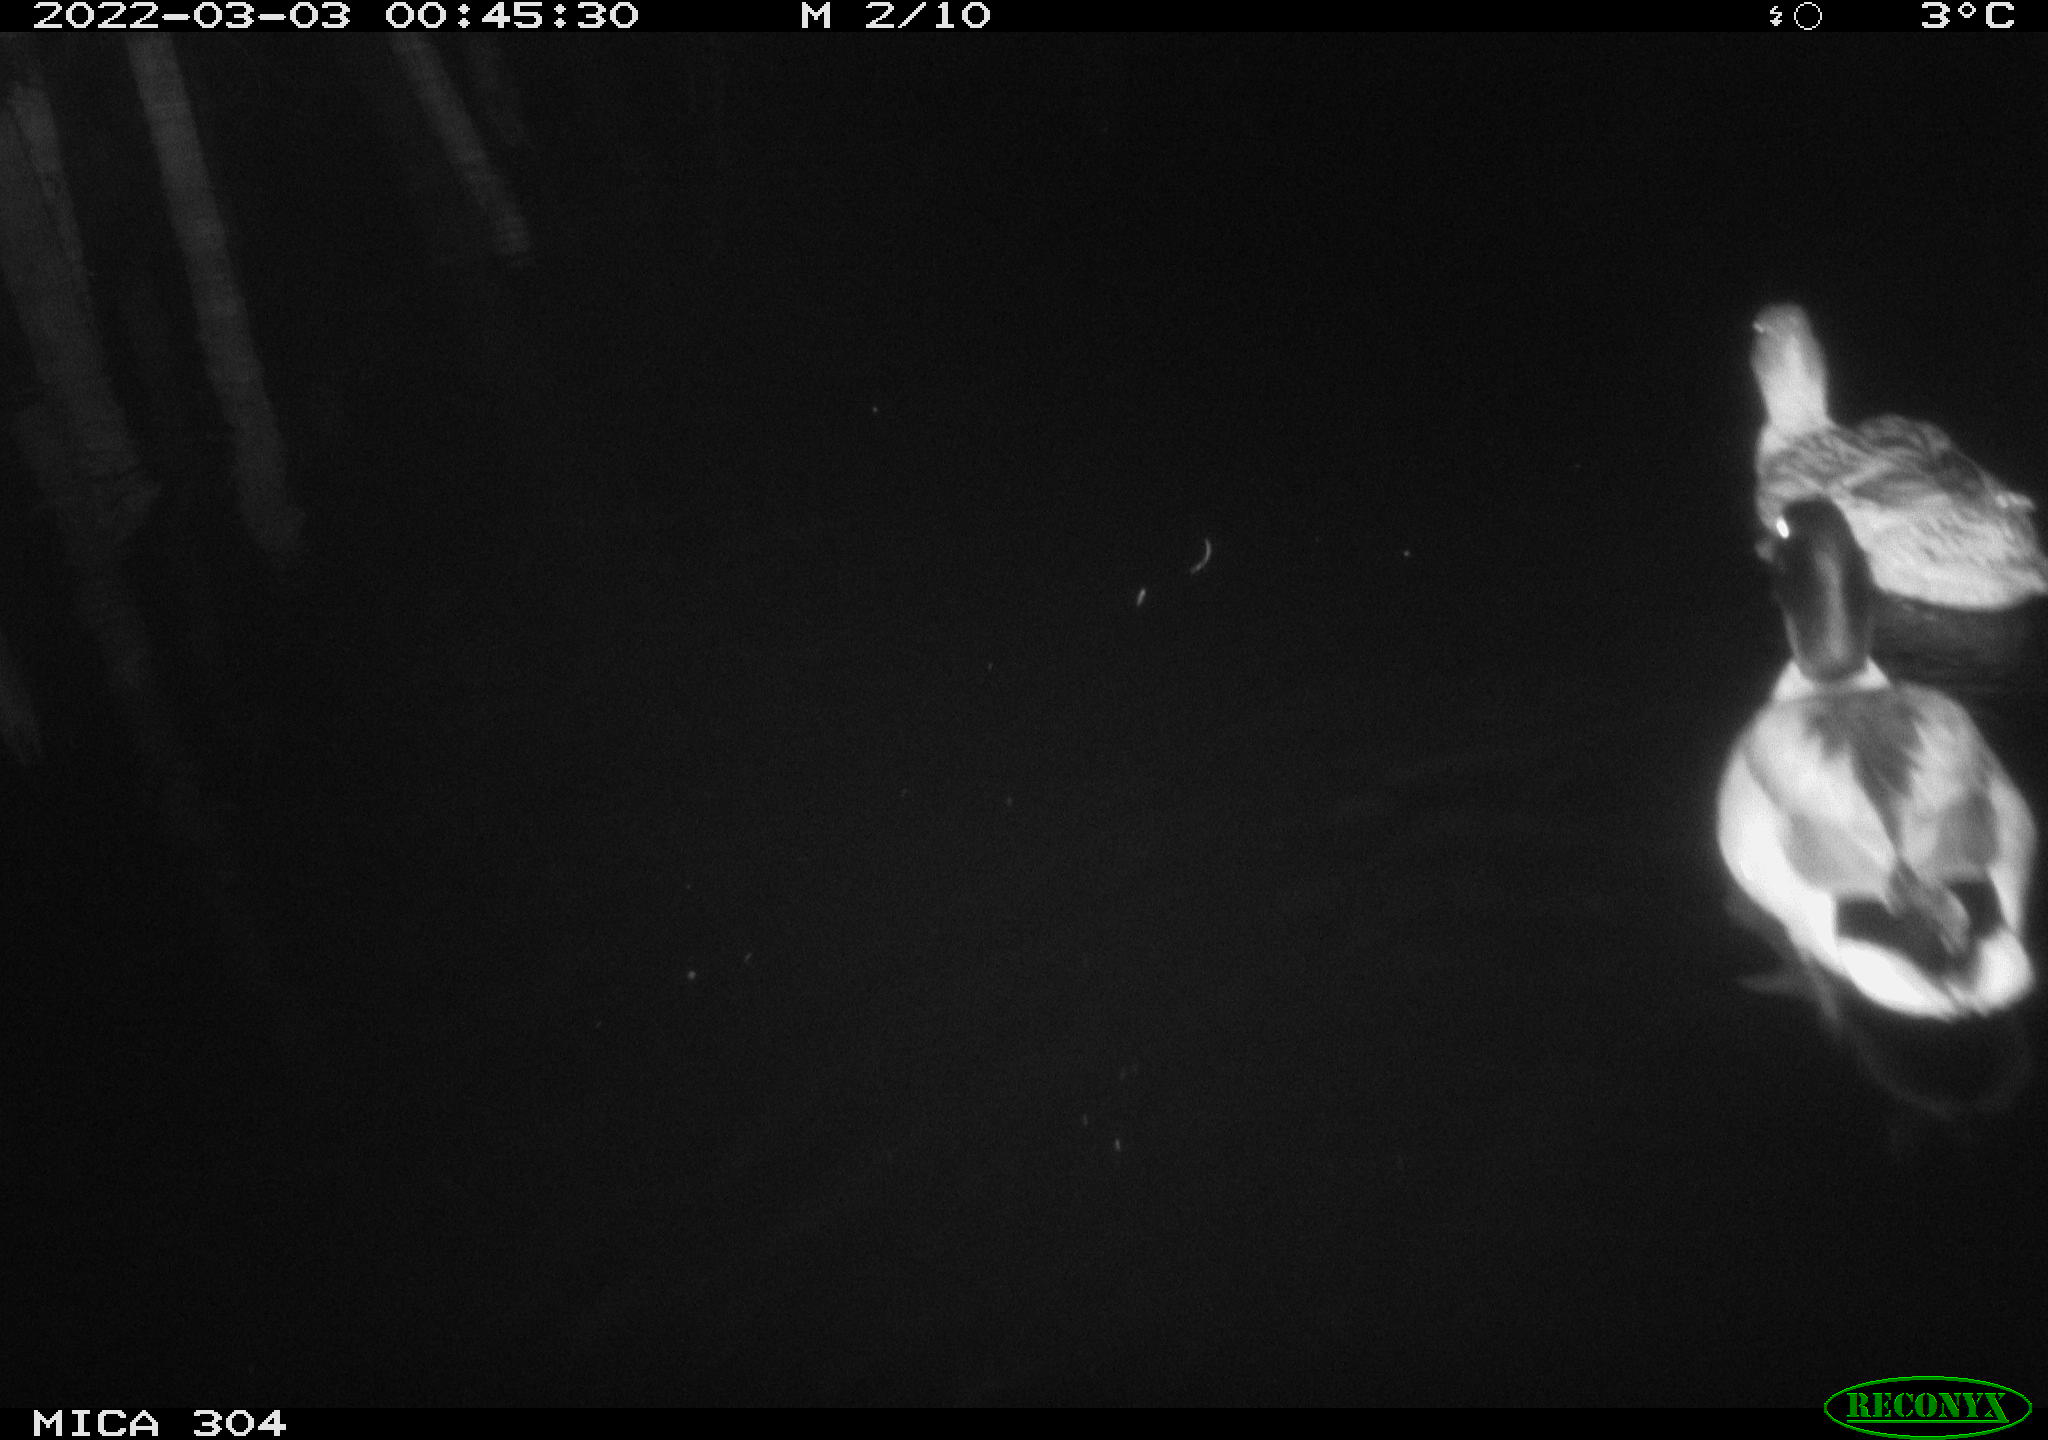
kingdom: Animalia
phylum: Chordata
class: Aves
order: Anseriformes
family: Anatidae
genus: Anas
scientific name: Anas platyrhynchos
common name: Mallard
